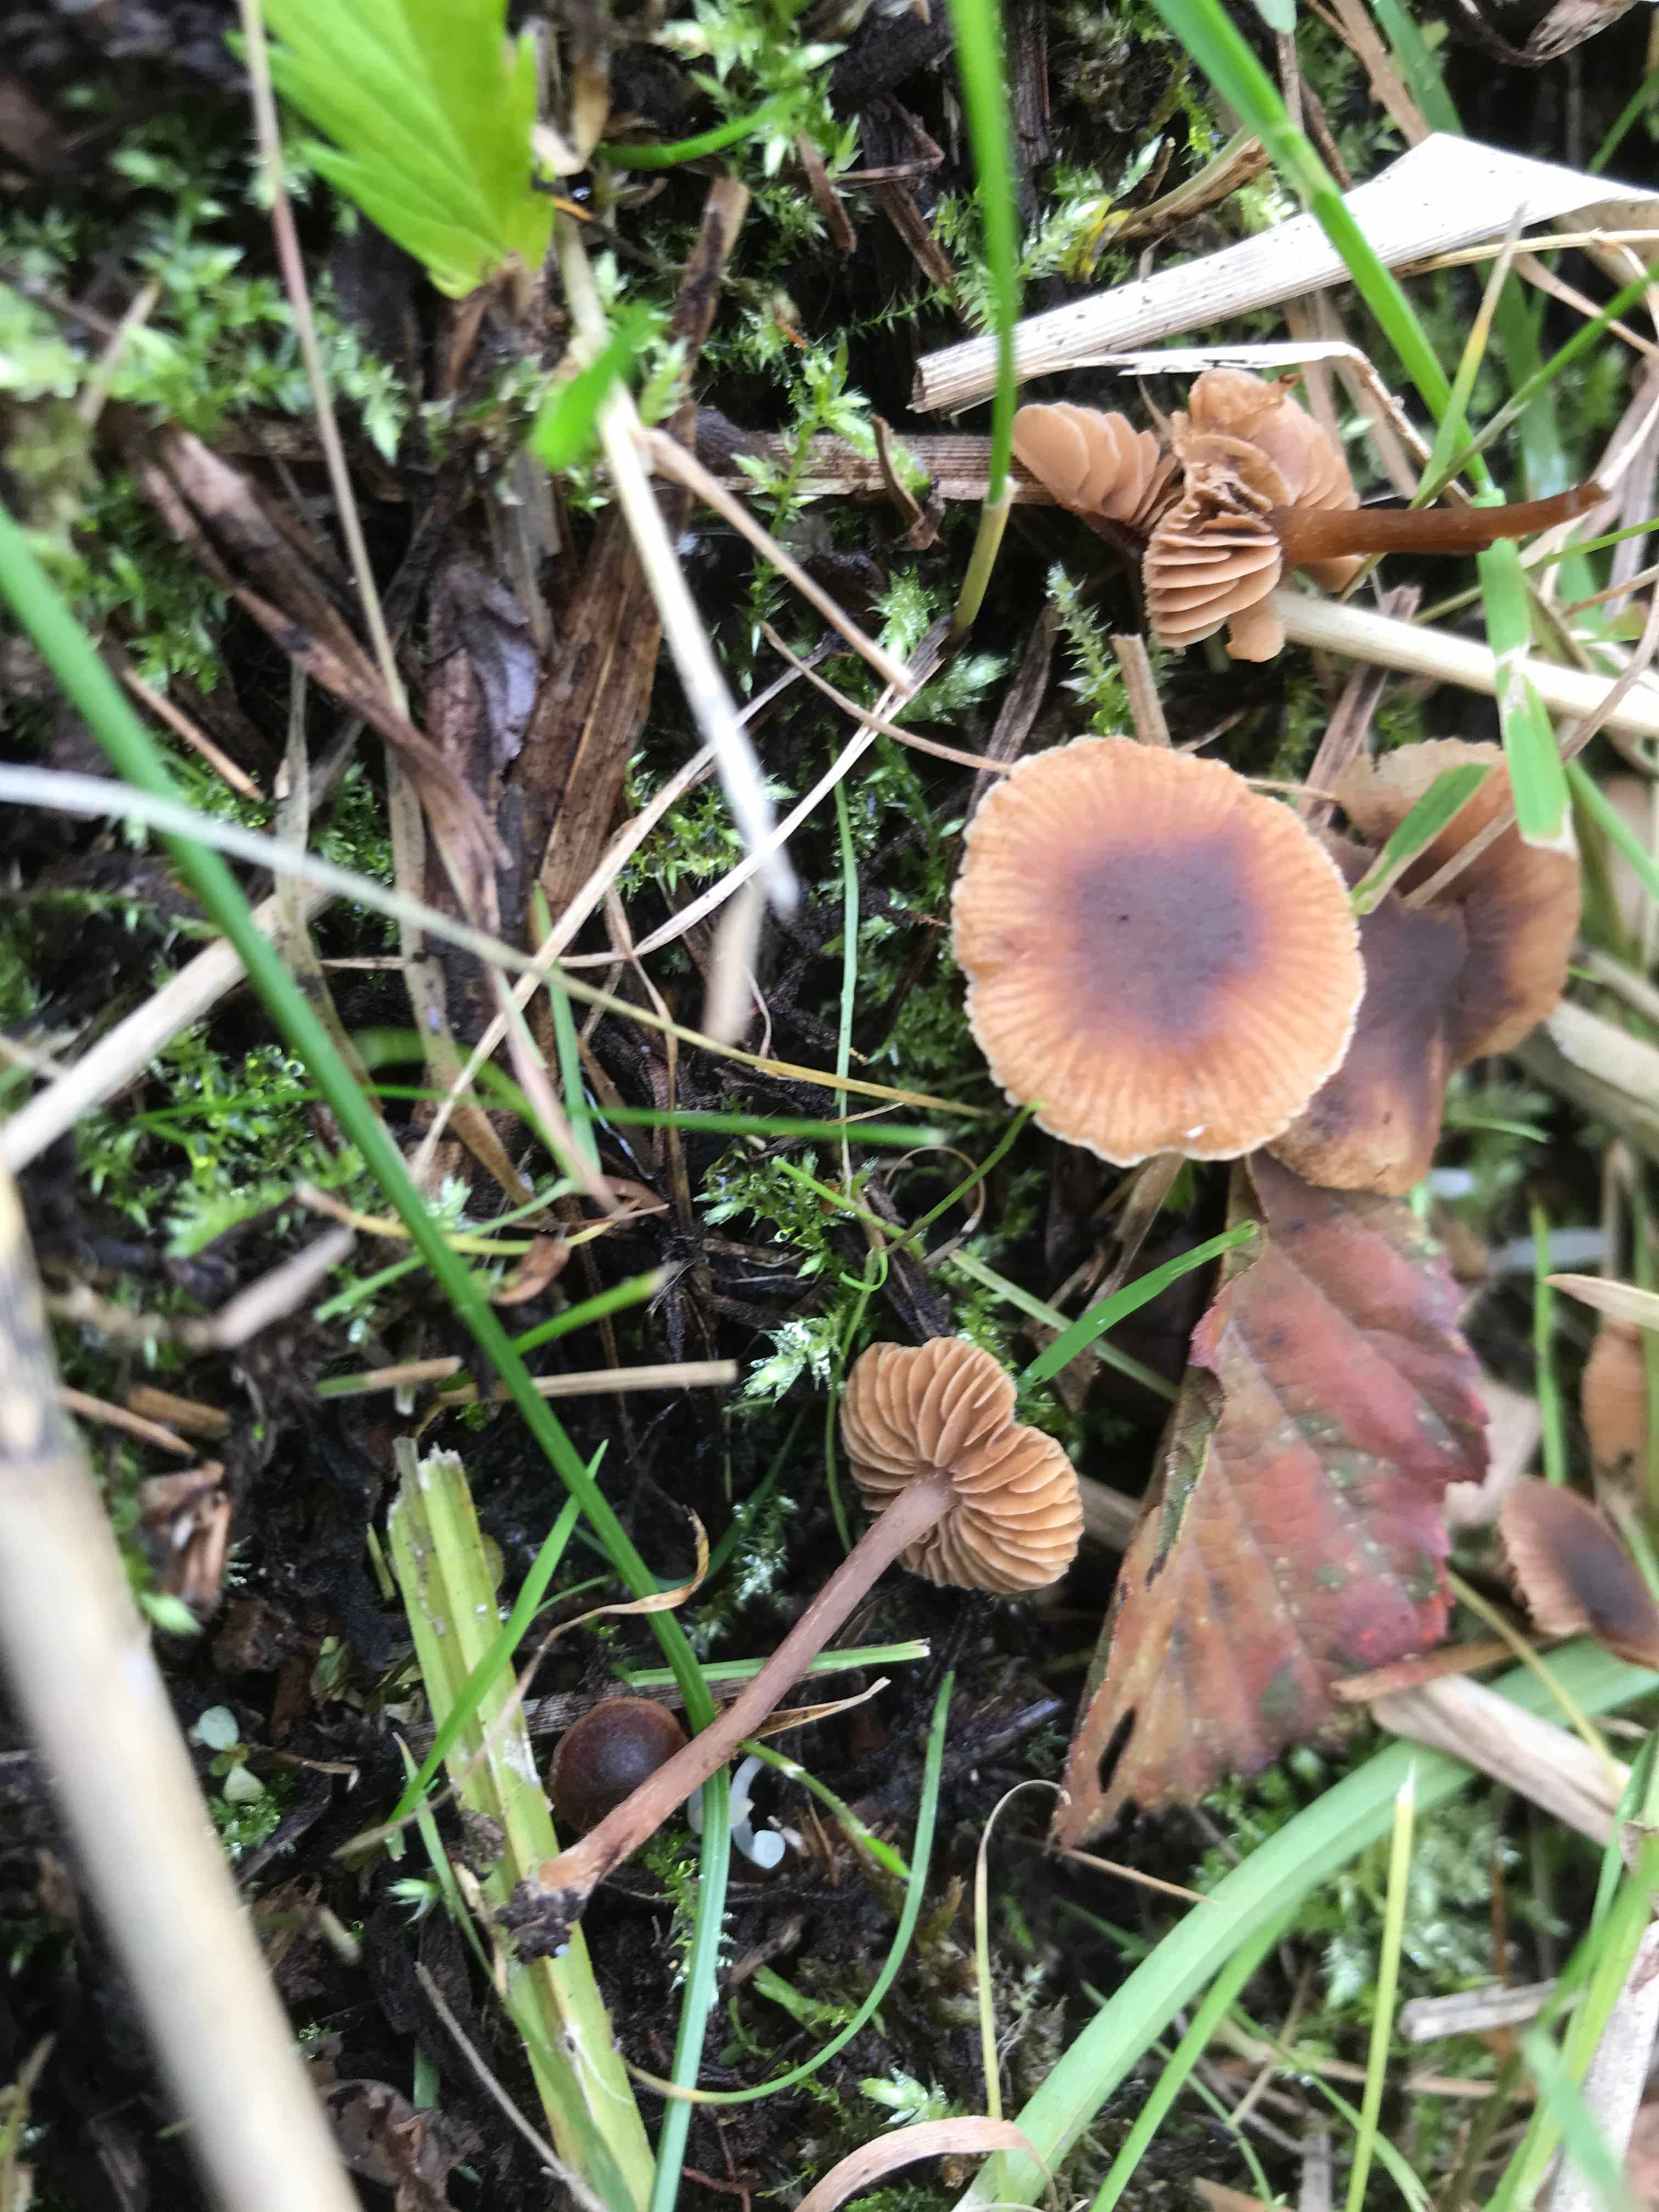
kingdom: Fungi
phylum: Basidiomycota
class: Agaricomycetes
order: Agaricales
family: Hymenogastraceae
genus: Naucoria
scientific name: Naucoria scolecina
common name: mørk elle-knaphat
